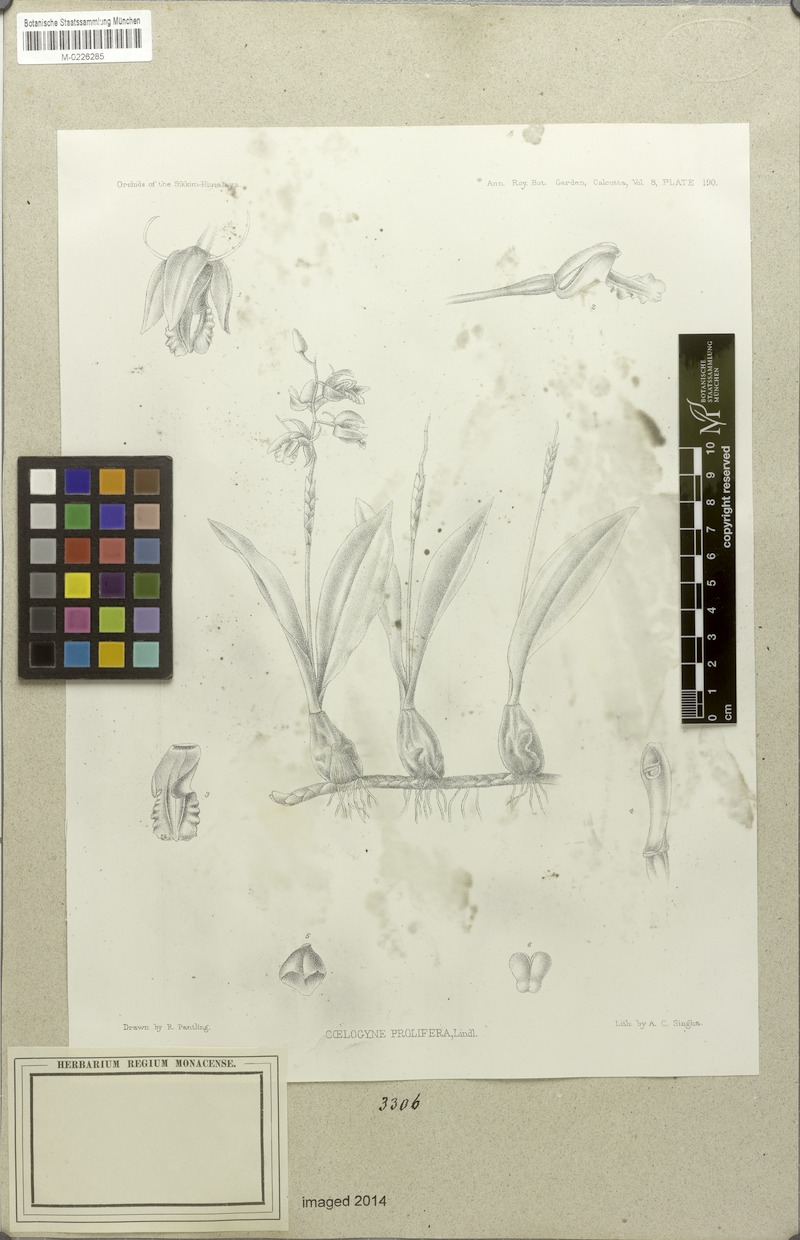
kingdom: Plantae
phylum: Tracheophyta
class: Liliopsida
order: Asparagales
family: Orchidaceae
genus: Coelogyne
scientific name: Coelogyne prolifera
